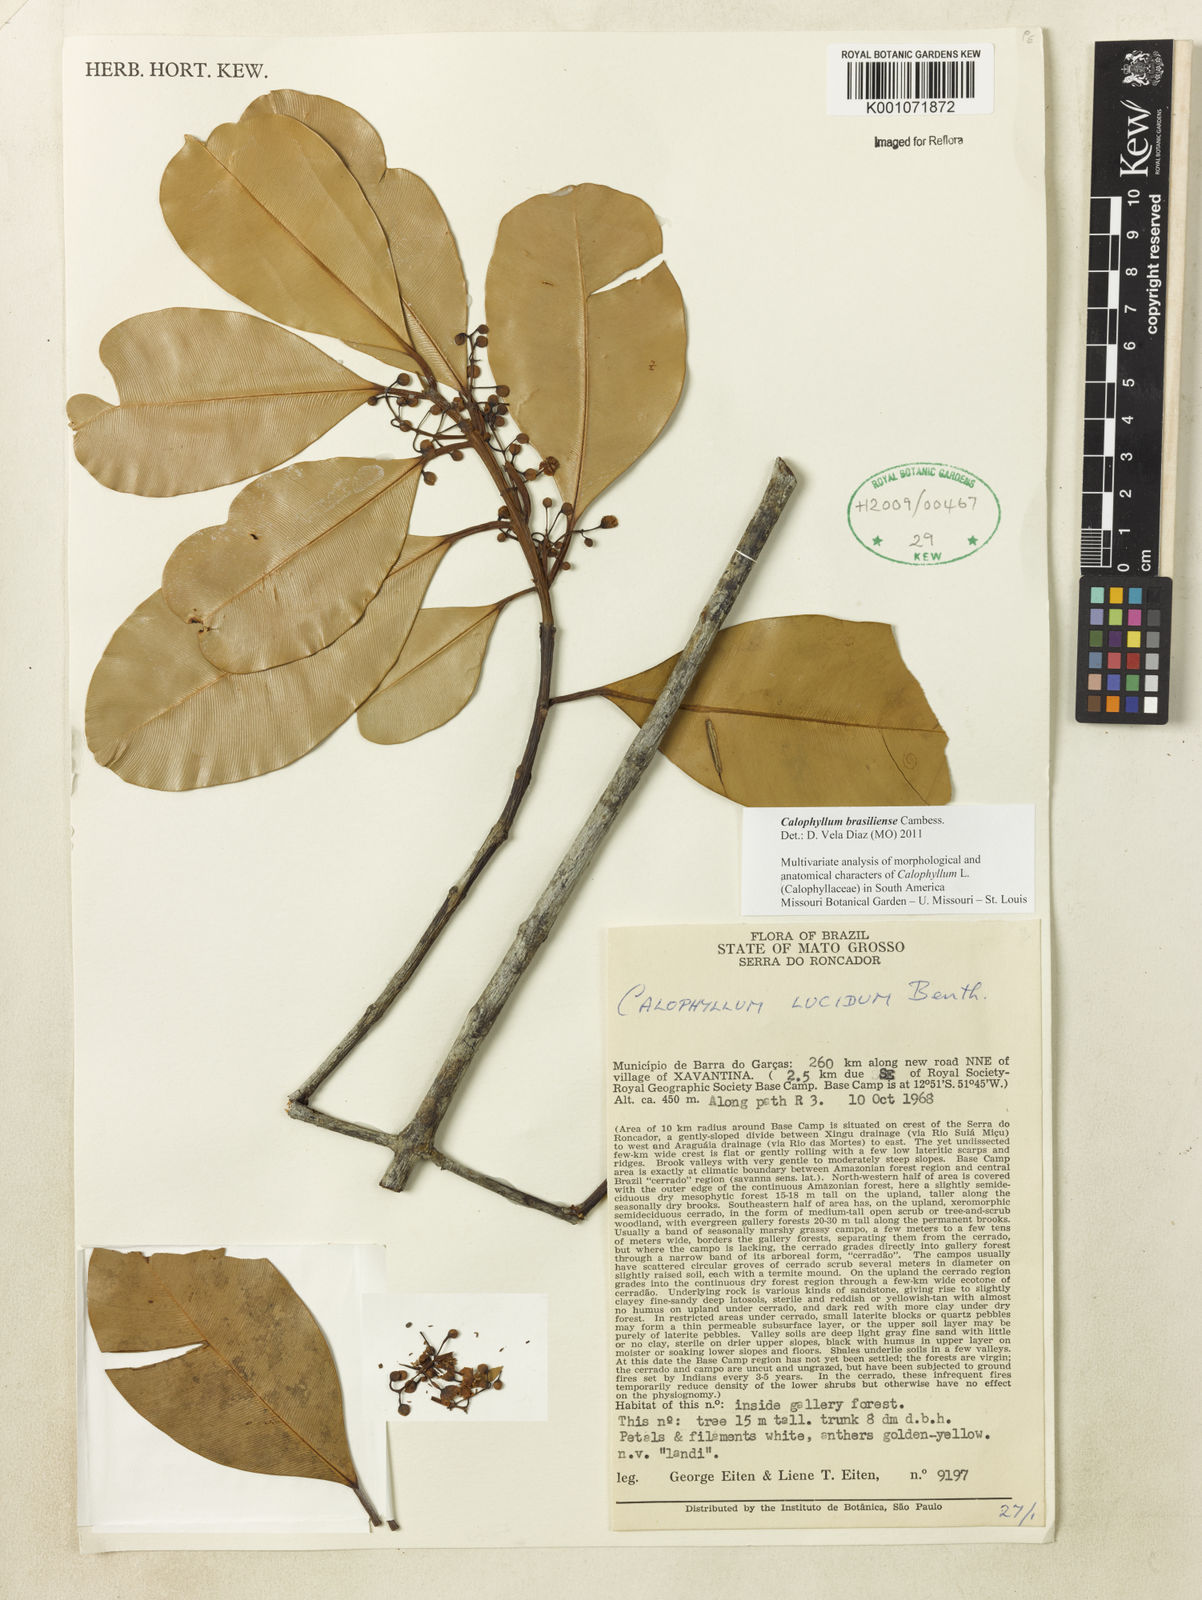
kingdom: Plantae
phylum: Tracheophyta
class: Magnoliopsida
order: Malpighiales
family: Calophyllaceae
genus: Calophyllum
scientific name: Calophyllum brasiliense
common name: Santa maria
